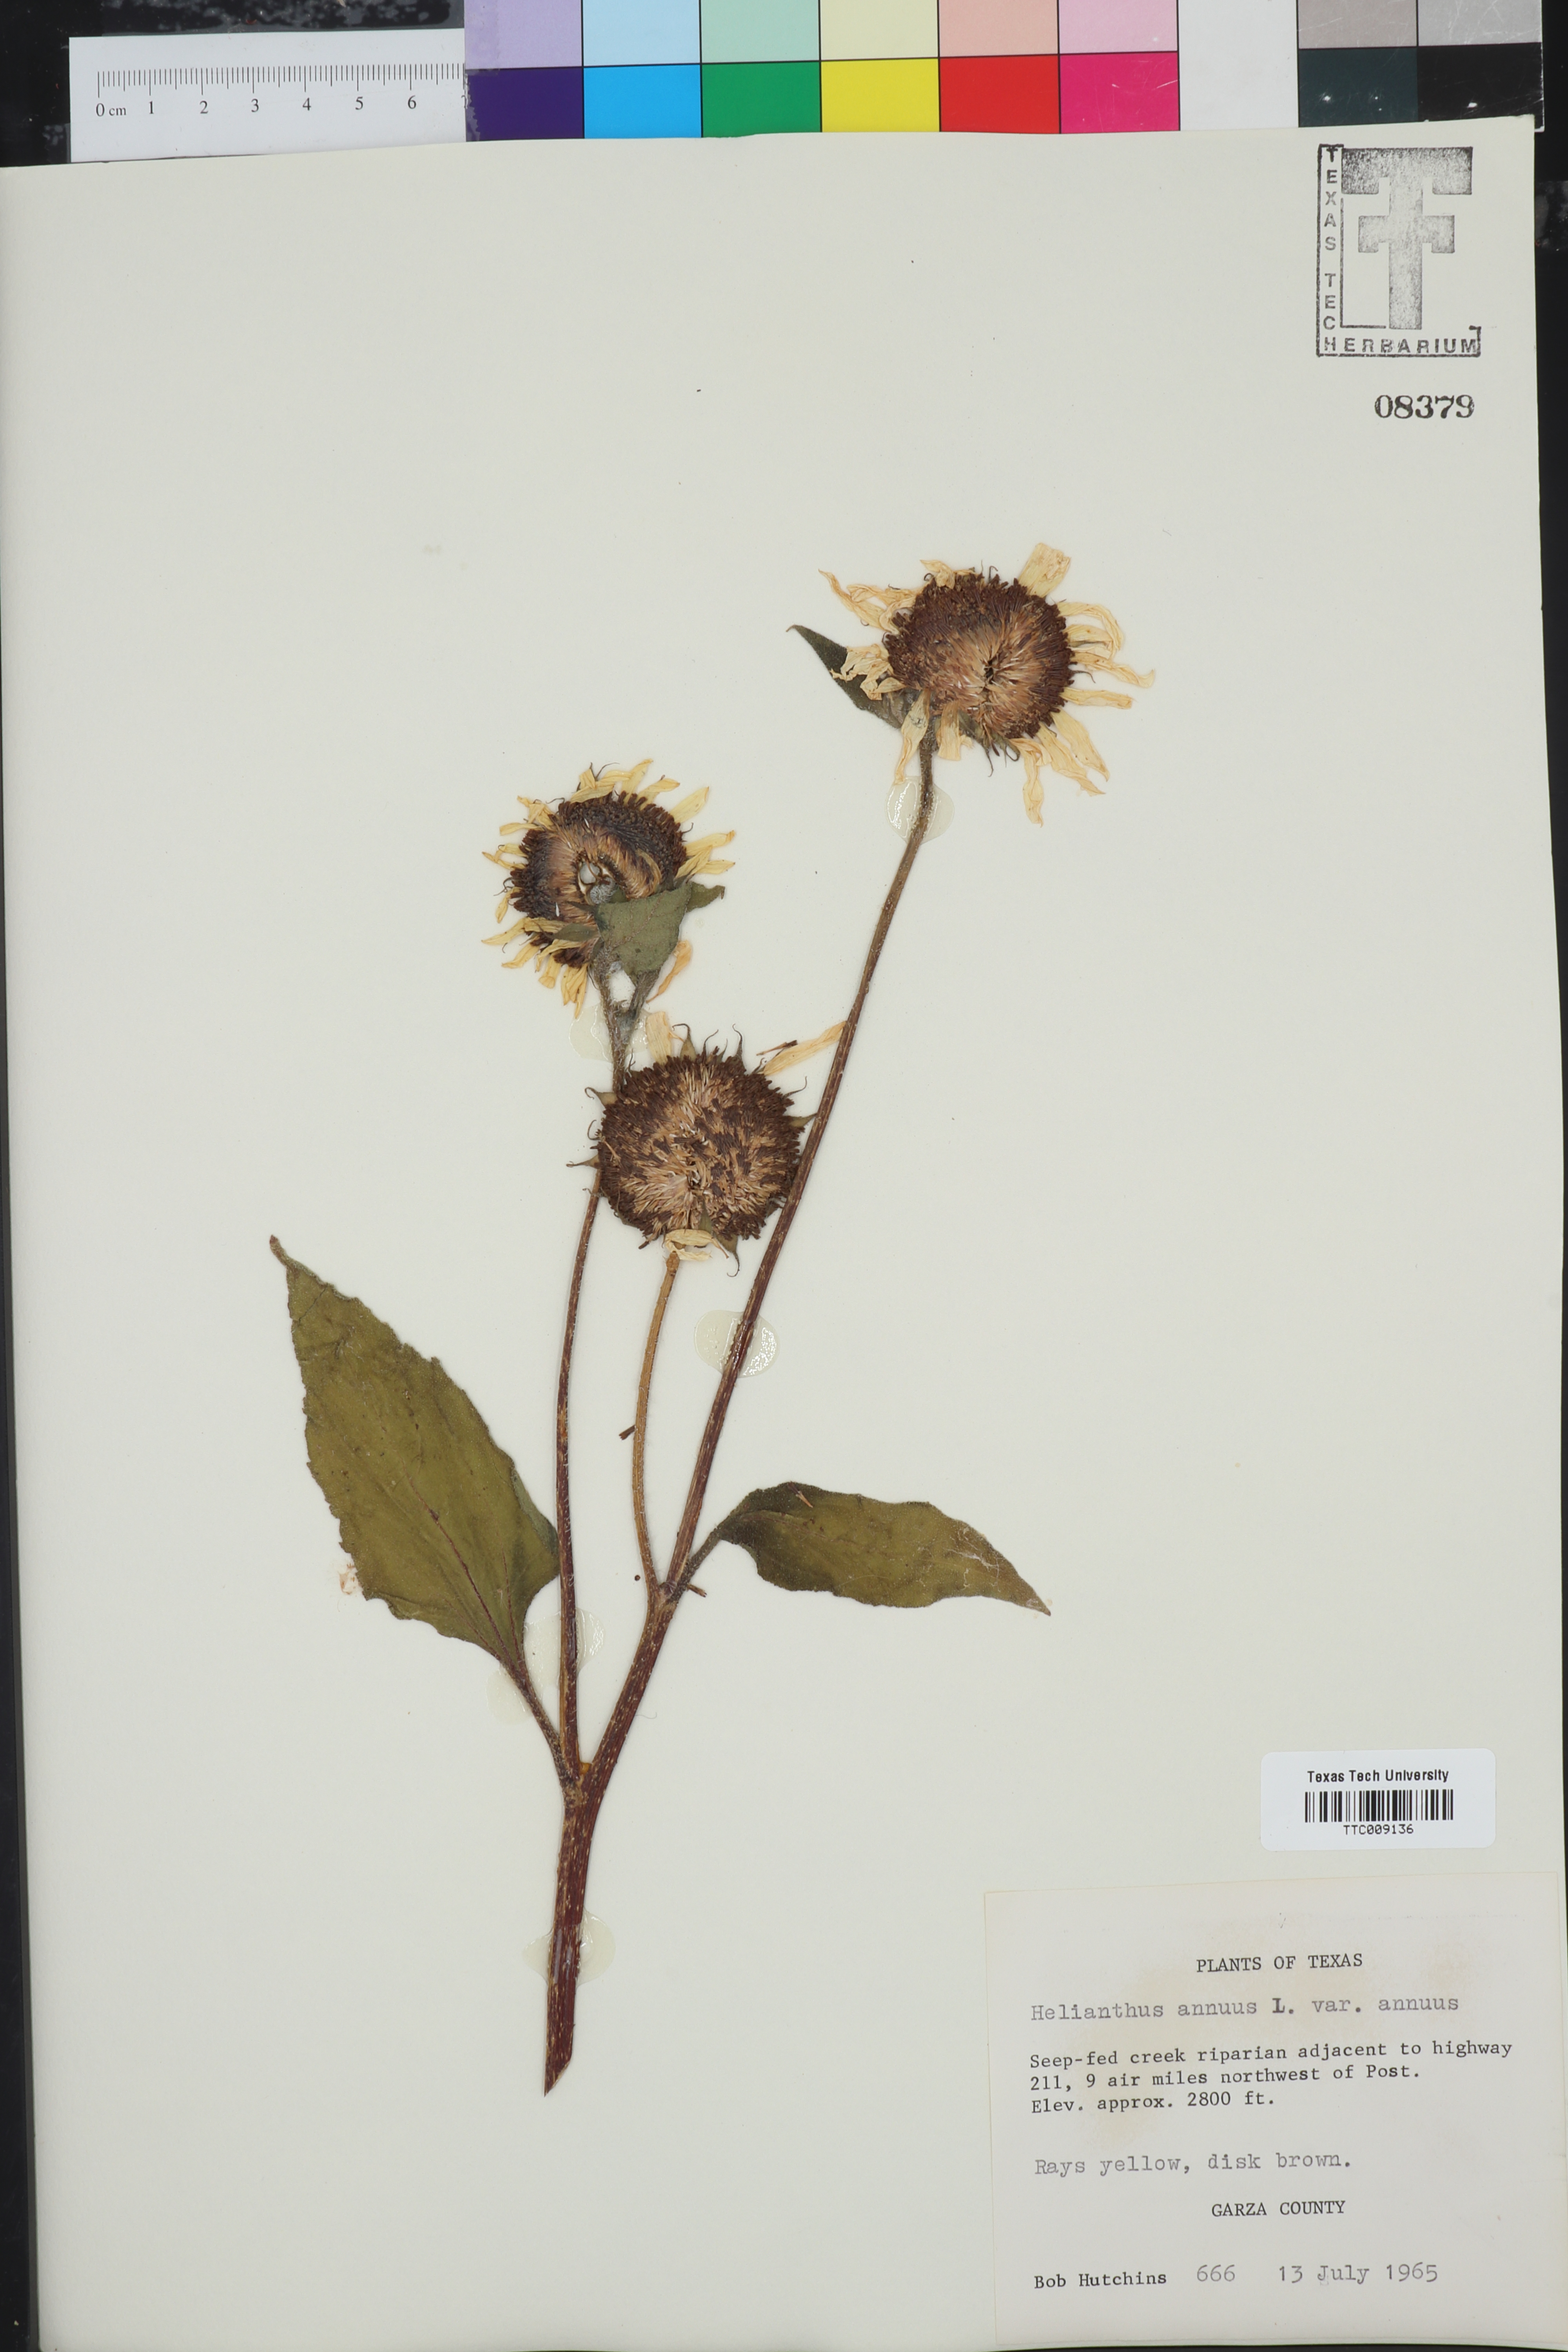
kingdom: Plantae
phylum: Tracheophyta
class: Magnoliopsida
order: Asterales
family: Asteraceae
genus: Helianthus
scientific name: Helianthus annuus
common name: Sunflower
